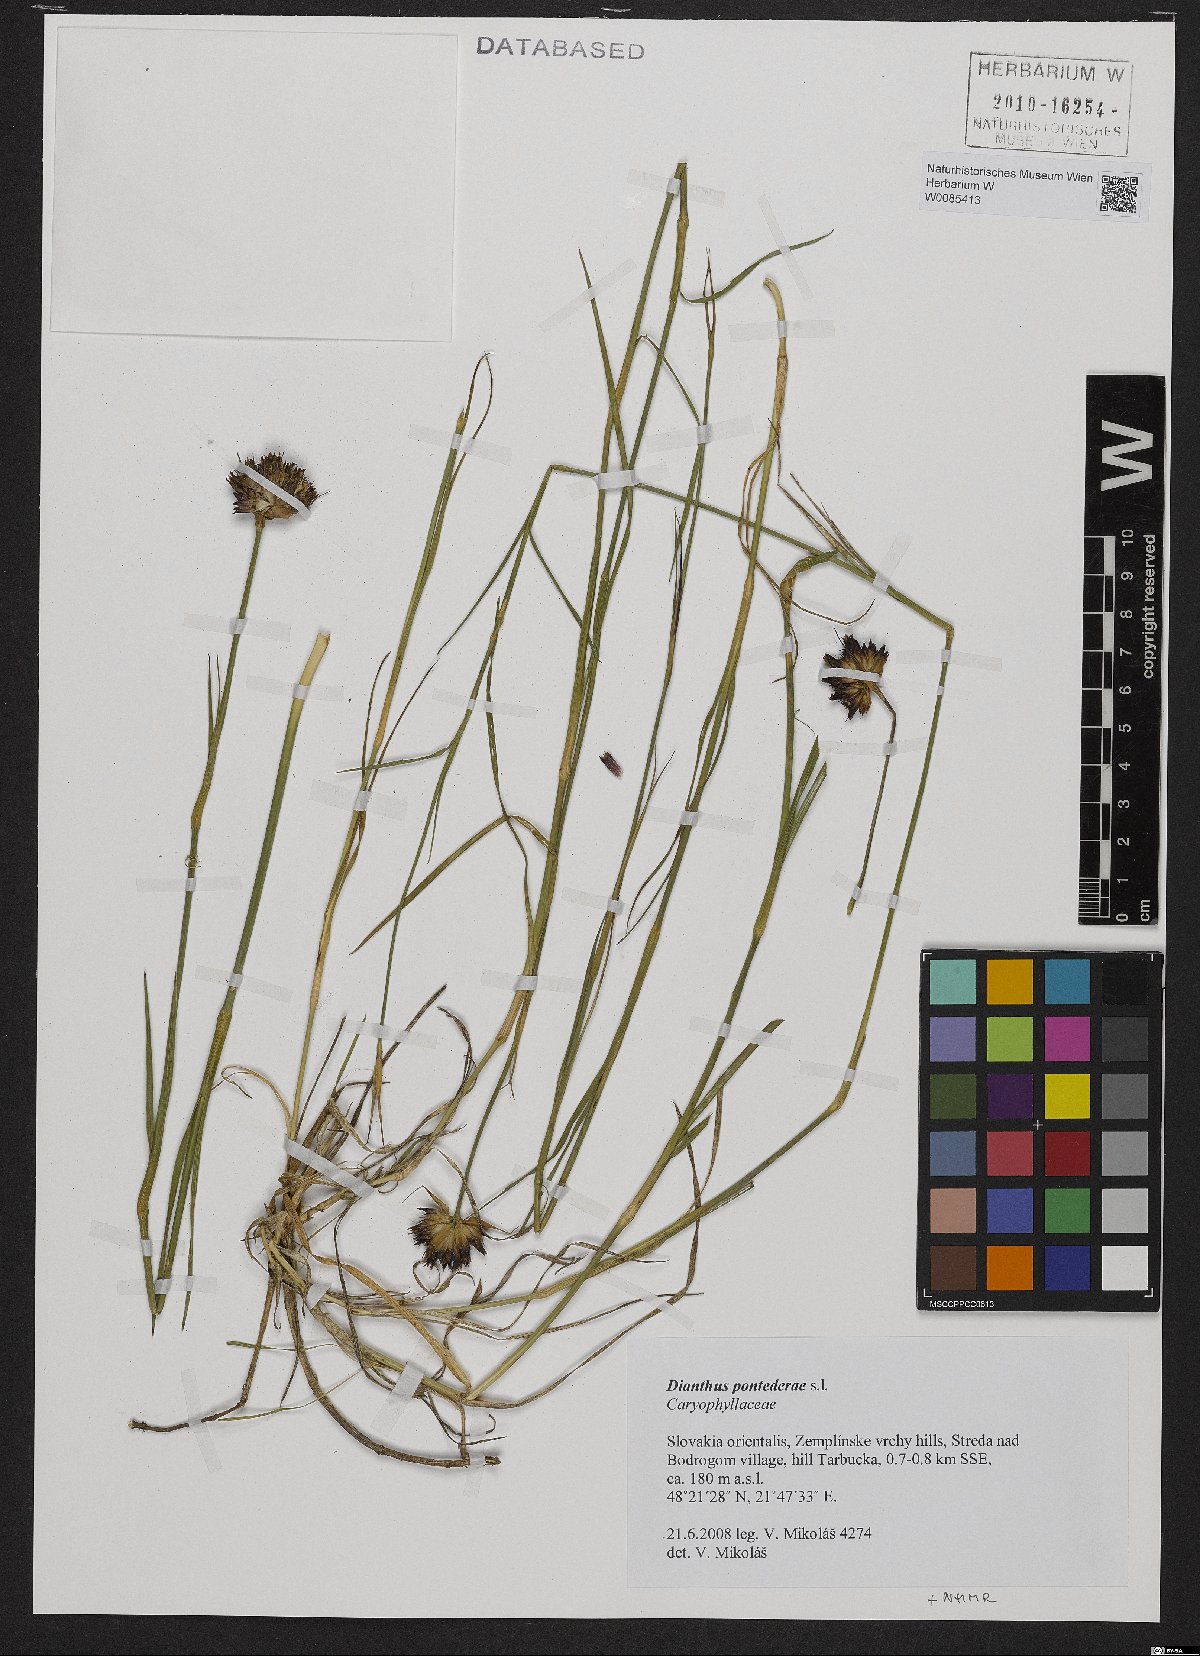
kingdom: Plantae
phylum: Tracheophyta
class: Magnoliopsida
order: Caryophyllales
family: Caryophyllaceae
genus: Dianthus
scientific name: Dianthus pontederae
